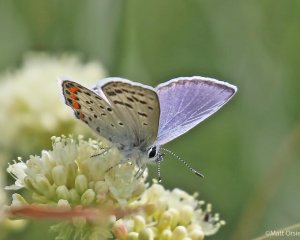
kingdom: Animalia
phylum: Arthropoda
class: Insecta
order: Lepidoptera
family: Lycaenidae
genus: Plebejus
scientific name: Plebejus acmon
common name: Acmon Blue
